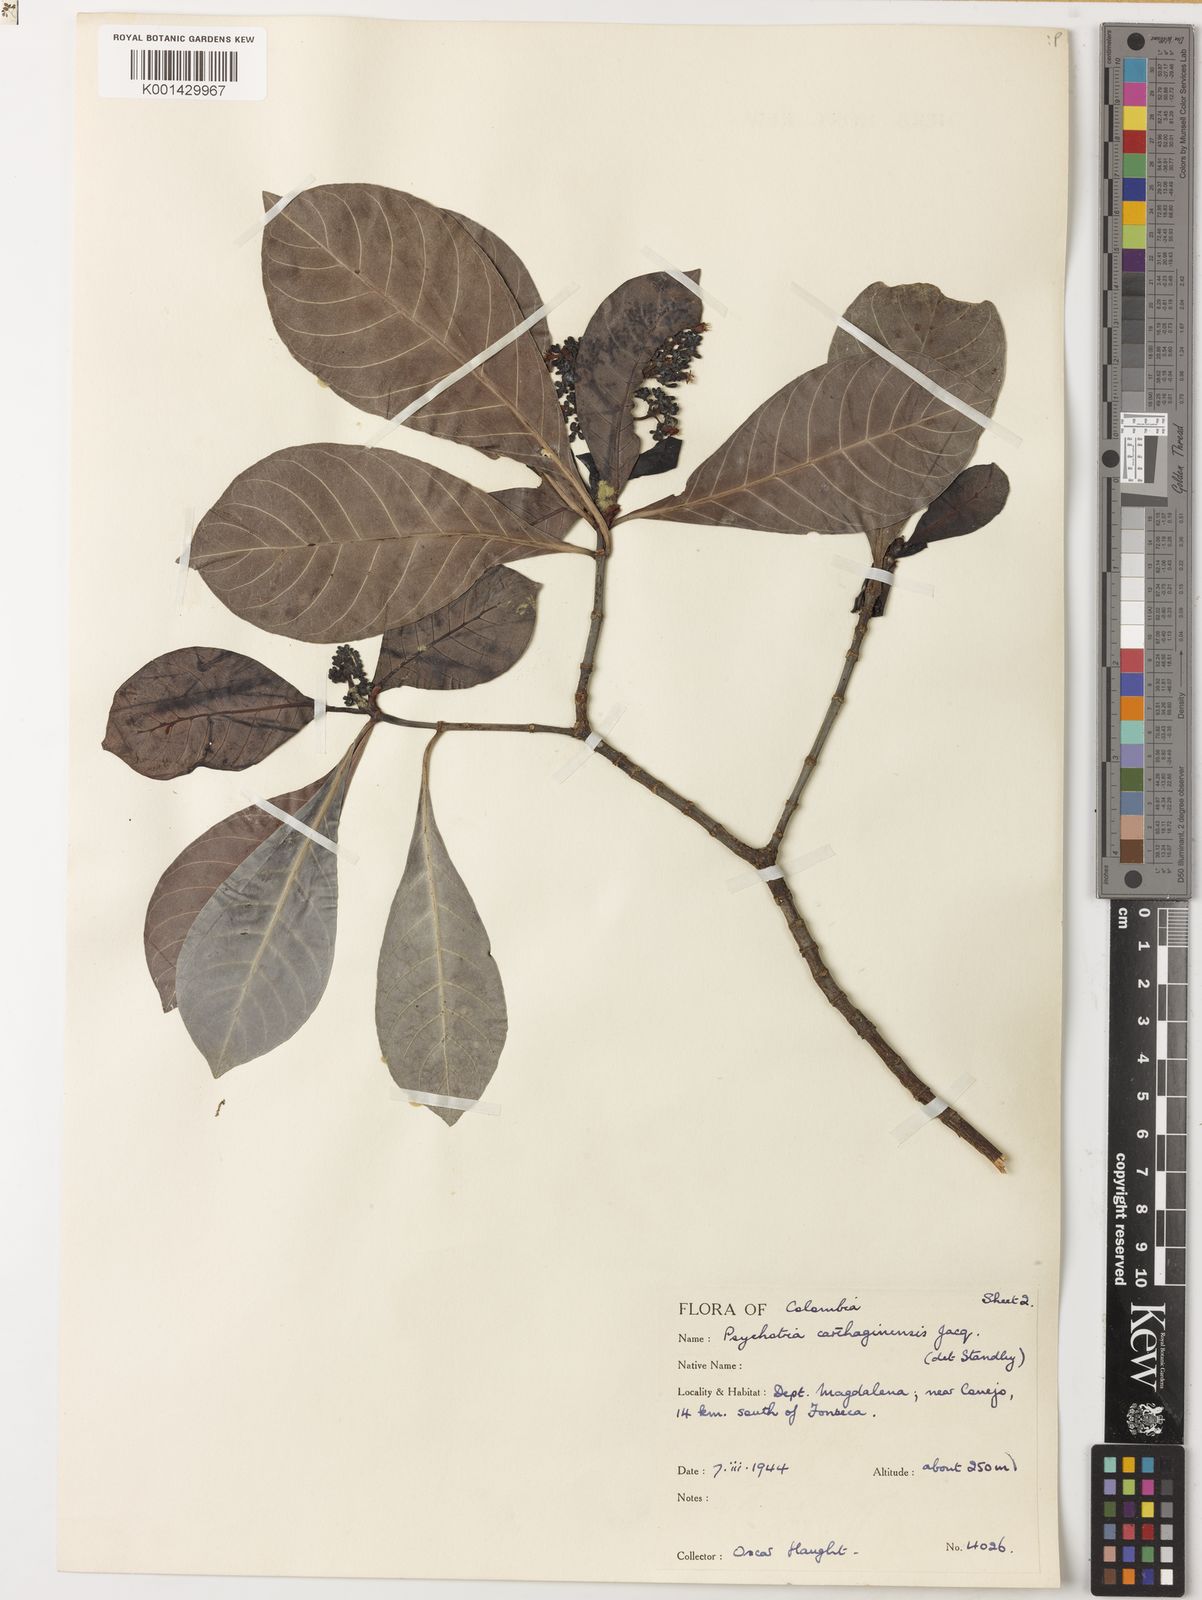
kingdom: Plantae
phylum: Tracheophyta
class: Magnoliopsida
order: Gentianales
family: Rubiaceae
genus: Psychotria
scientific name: Psychotria carthagenensis
